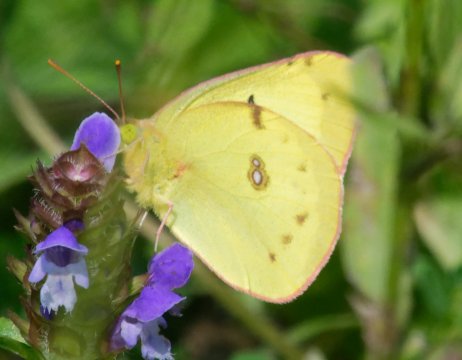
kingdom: Animalia
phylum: Arthropoda
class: Insecta
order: Lepidoptera
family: Pieridae
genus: Colias
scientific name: Colias philodice
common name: Clouded Sulphur
